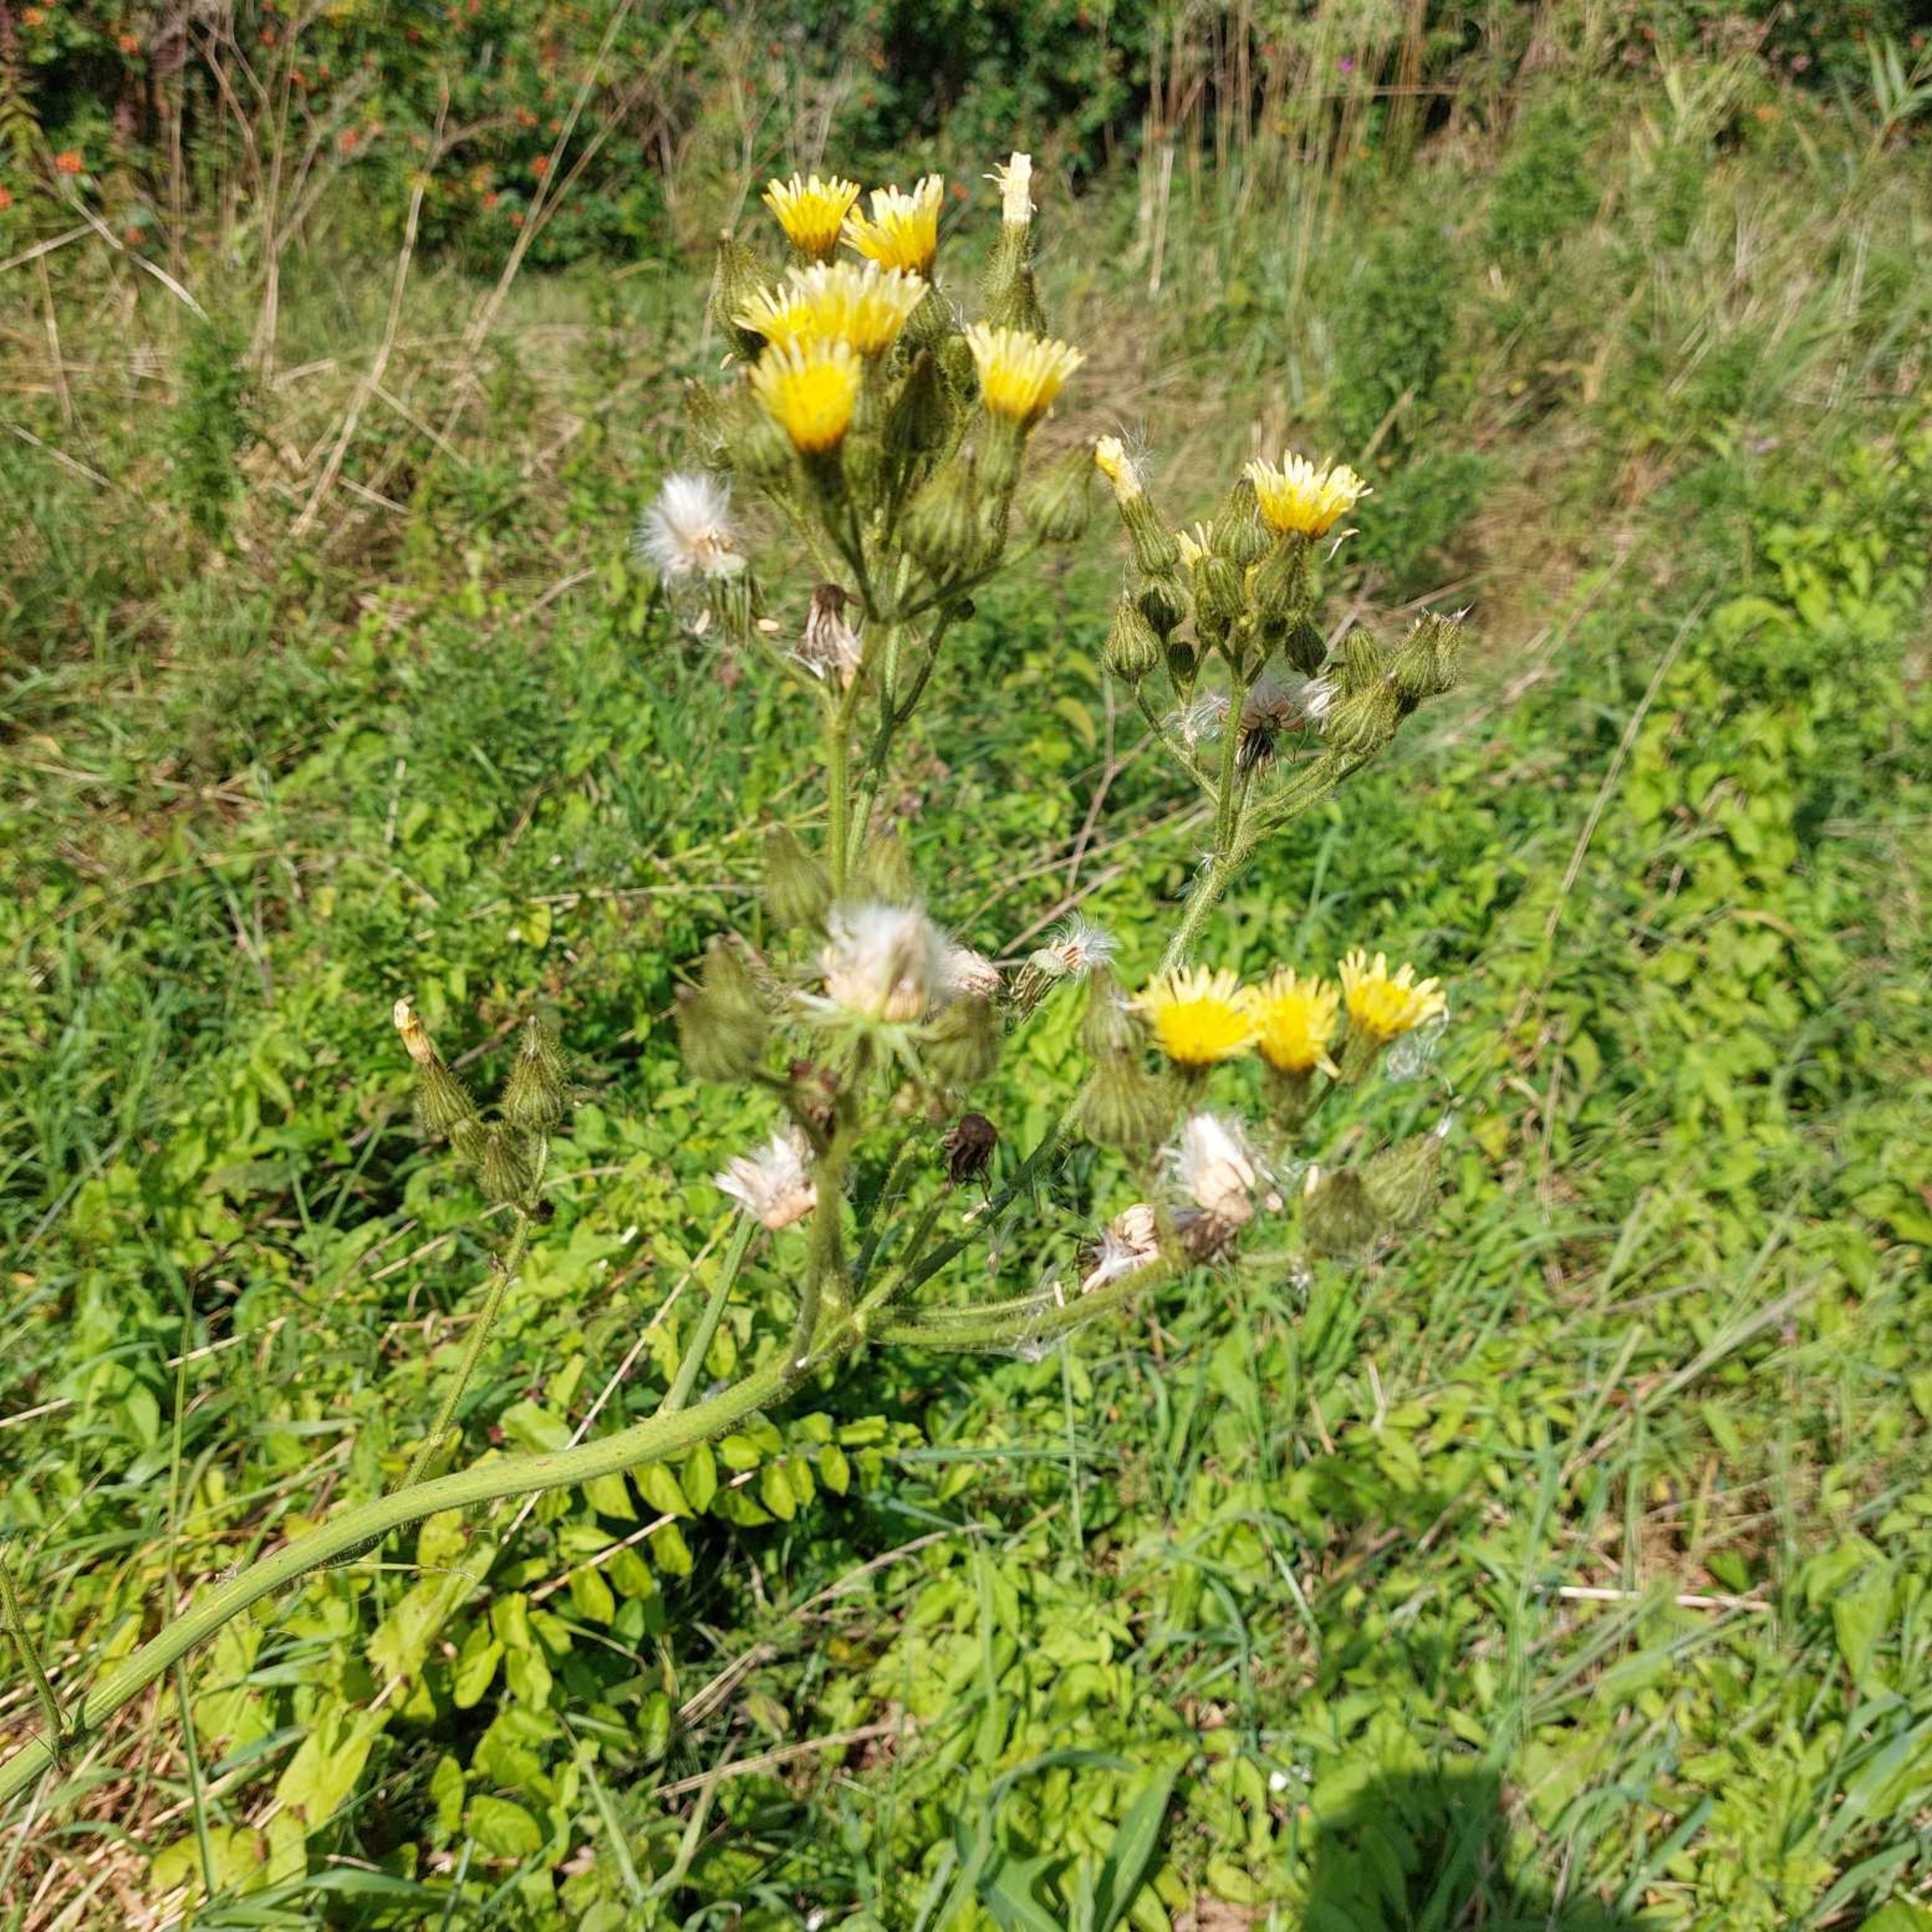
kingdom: Plantae
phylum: Tracheophyta
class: Magnoliopsida
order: Asterales
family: Asteraceae
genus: Sonchus
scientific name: Sonchus palustris
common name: Kær-svinemælk
